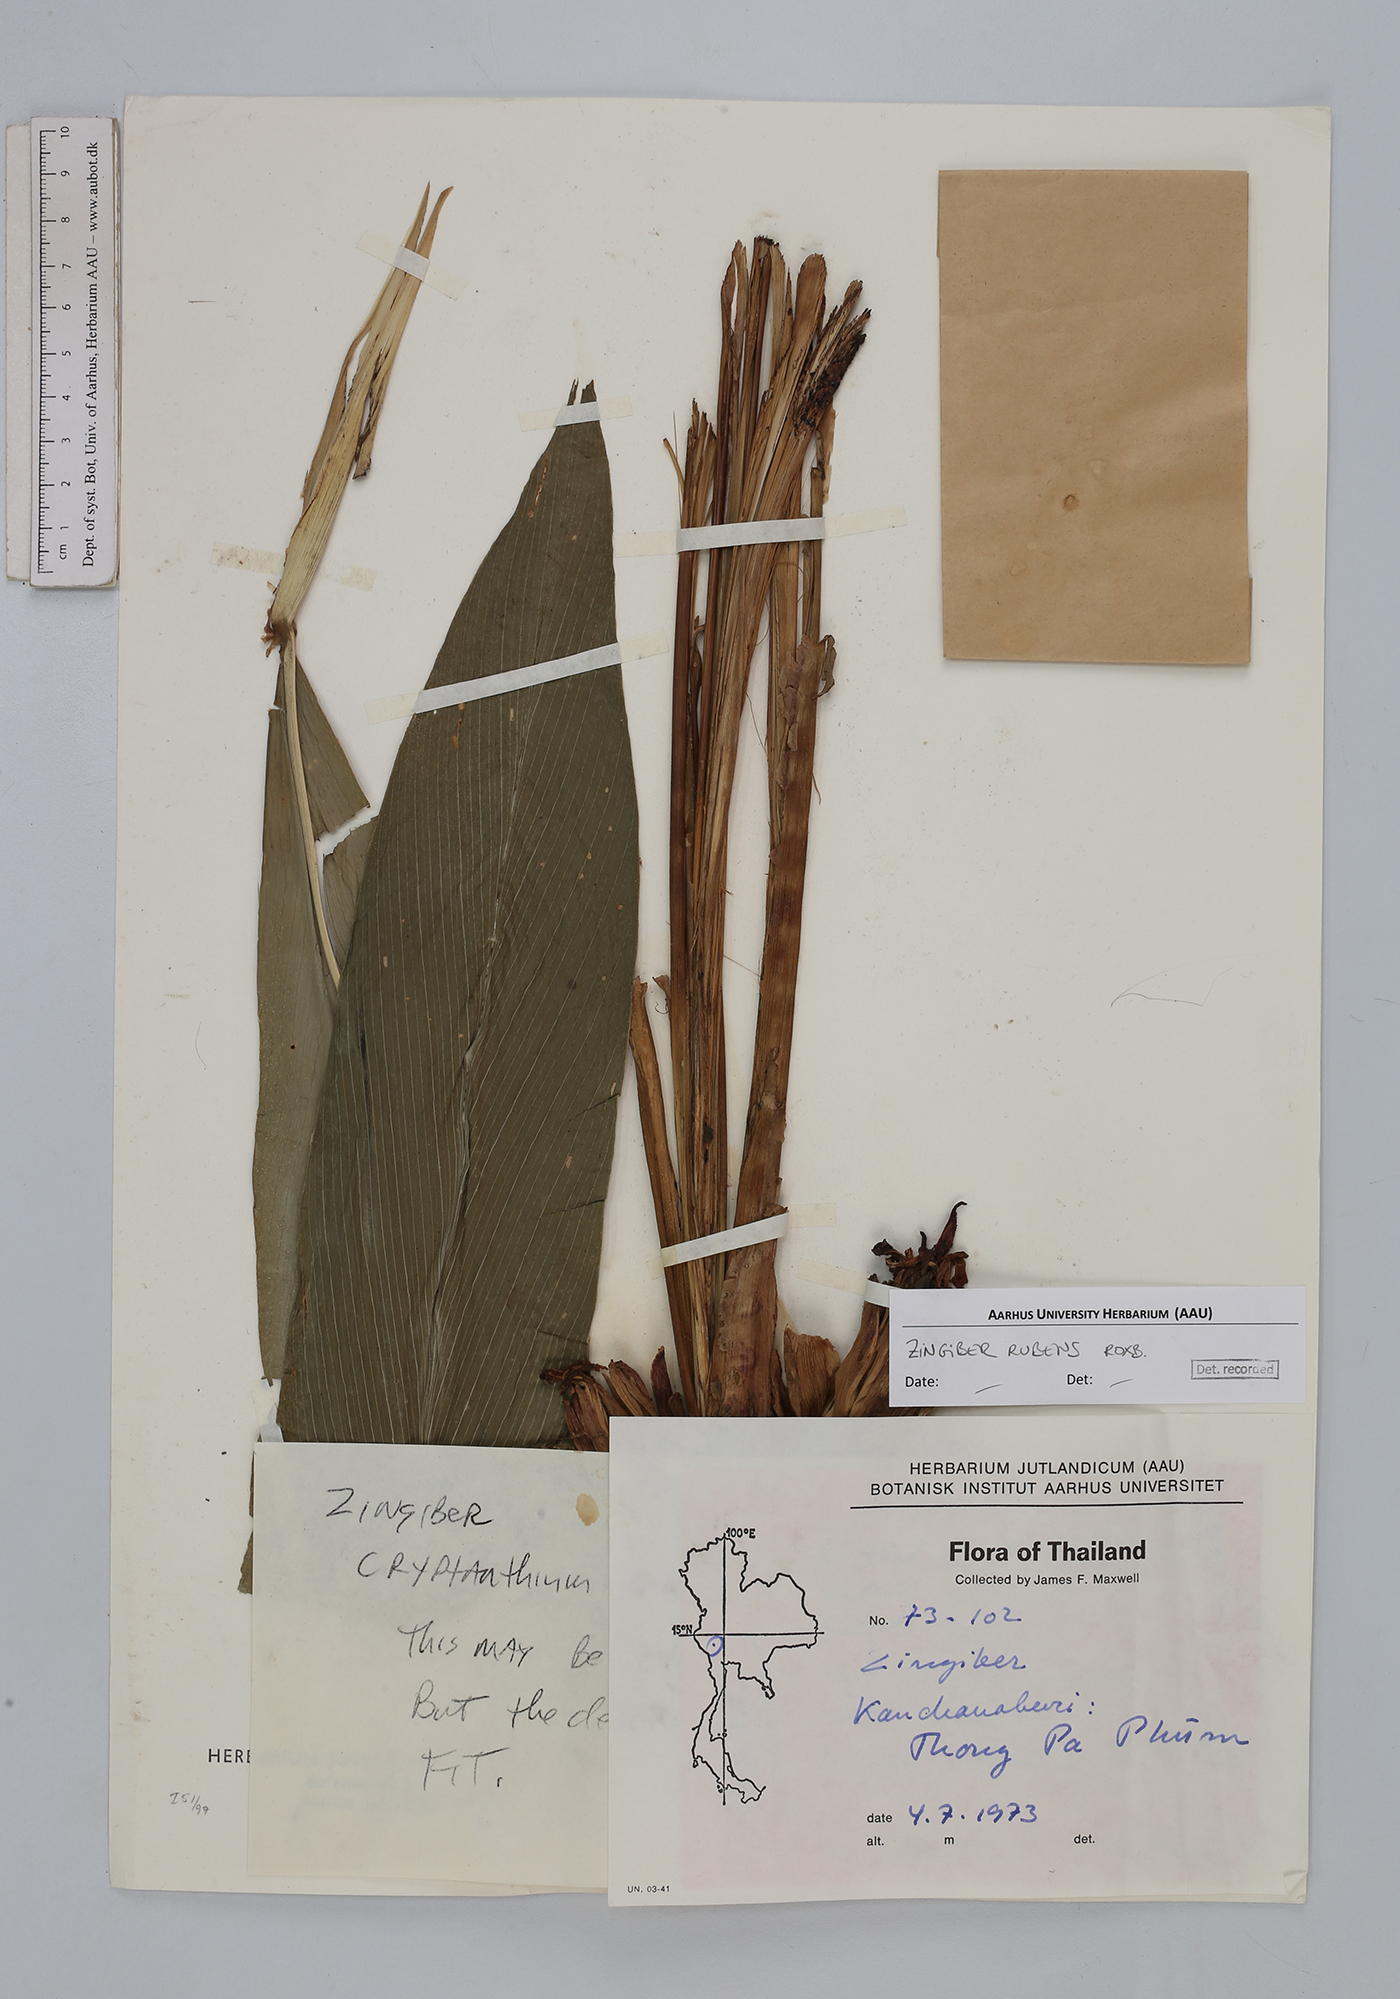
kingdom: Plantae
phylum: Tracheophyta
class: Liliopsida
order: Zingiberales
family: Zingiberaceae
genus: Zingiber
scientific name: Zingiber rubens
